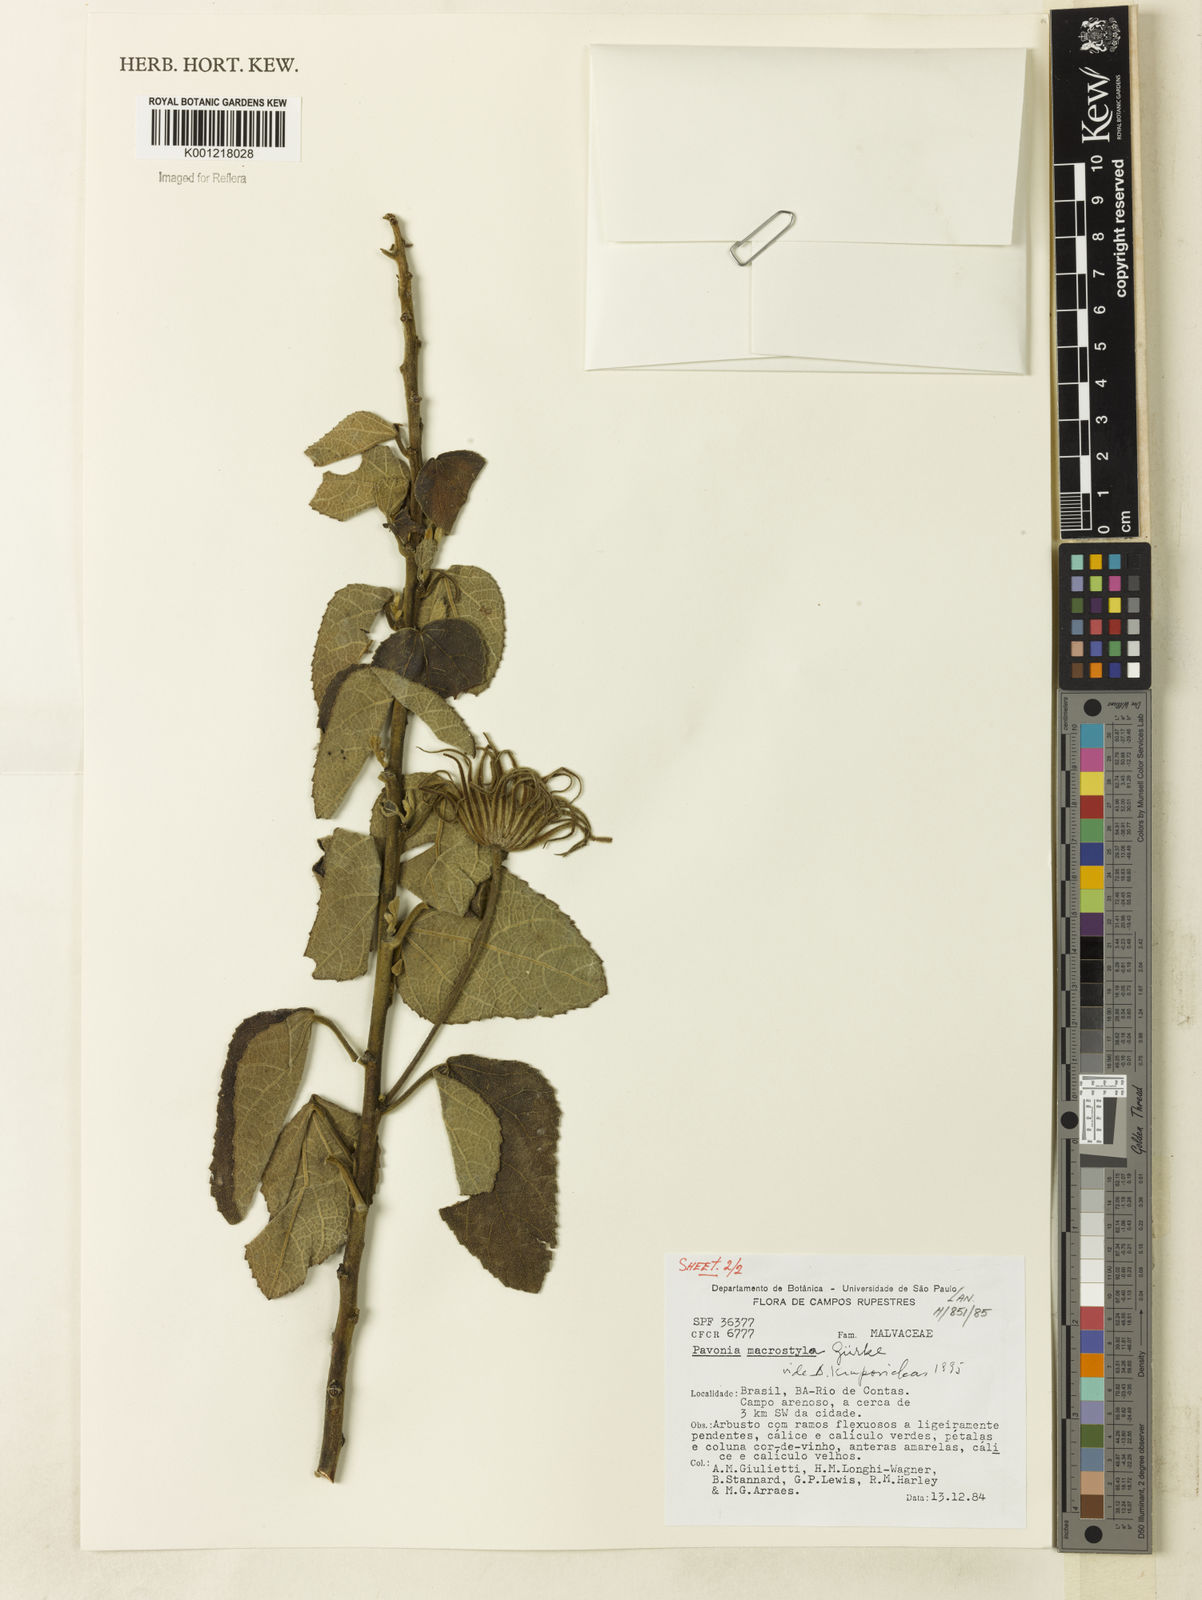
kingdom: Plantae
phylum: Tracheophyta
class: Magnoliopsida
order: Malvales
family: Malvaceae
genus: Pavonia
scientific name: Pavonia
